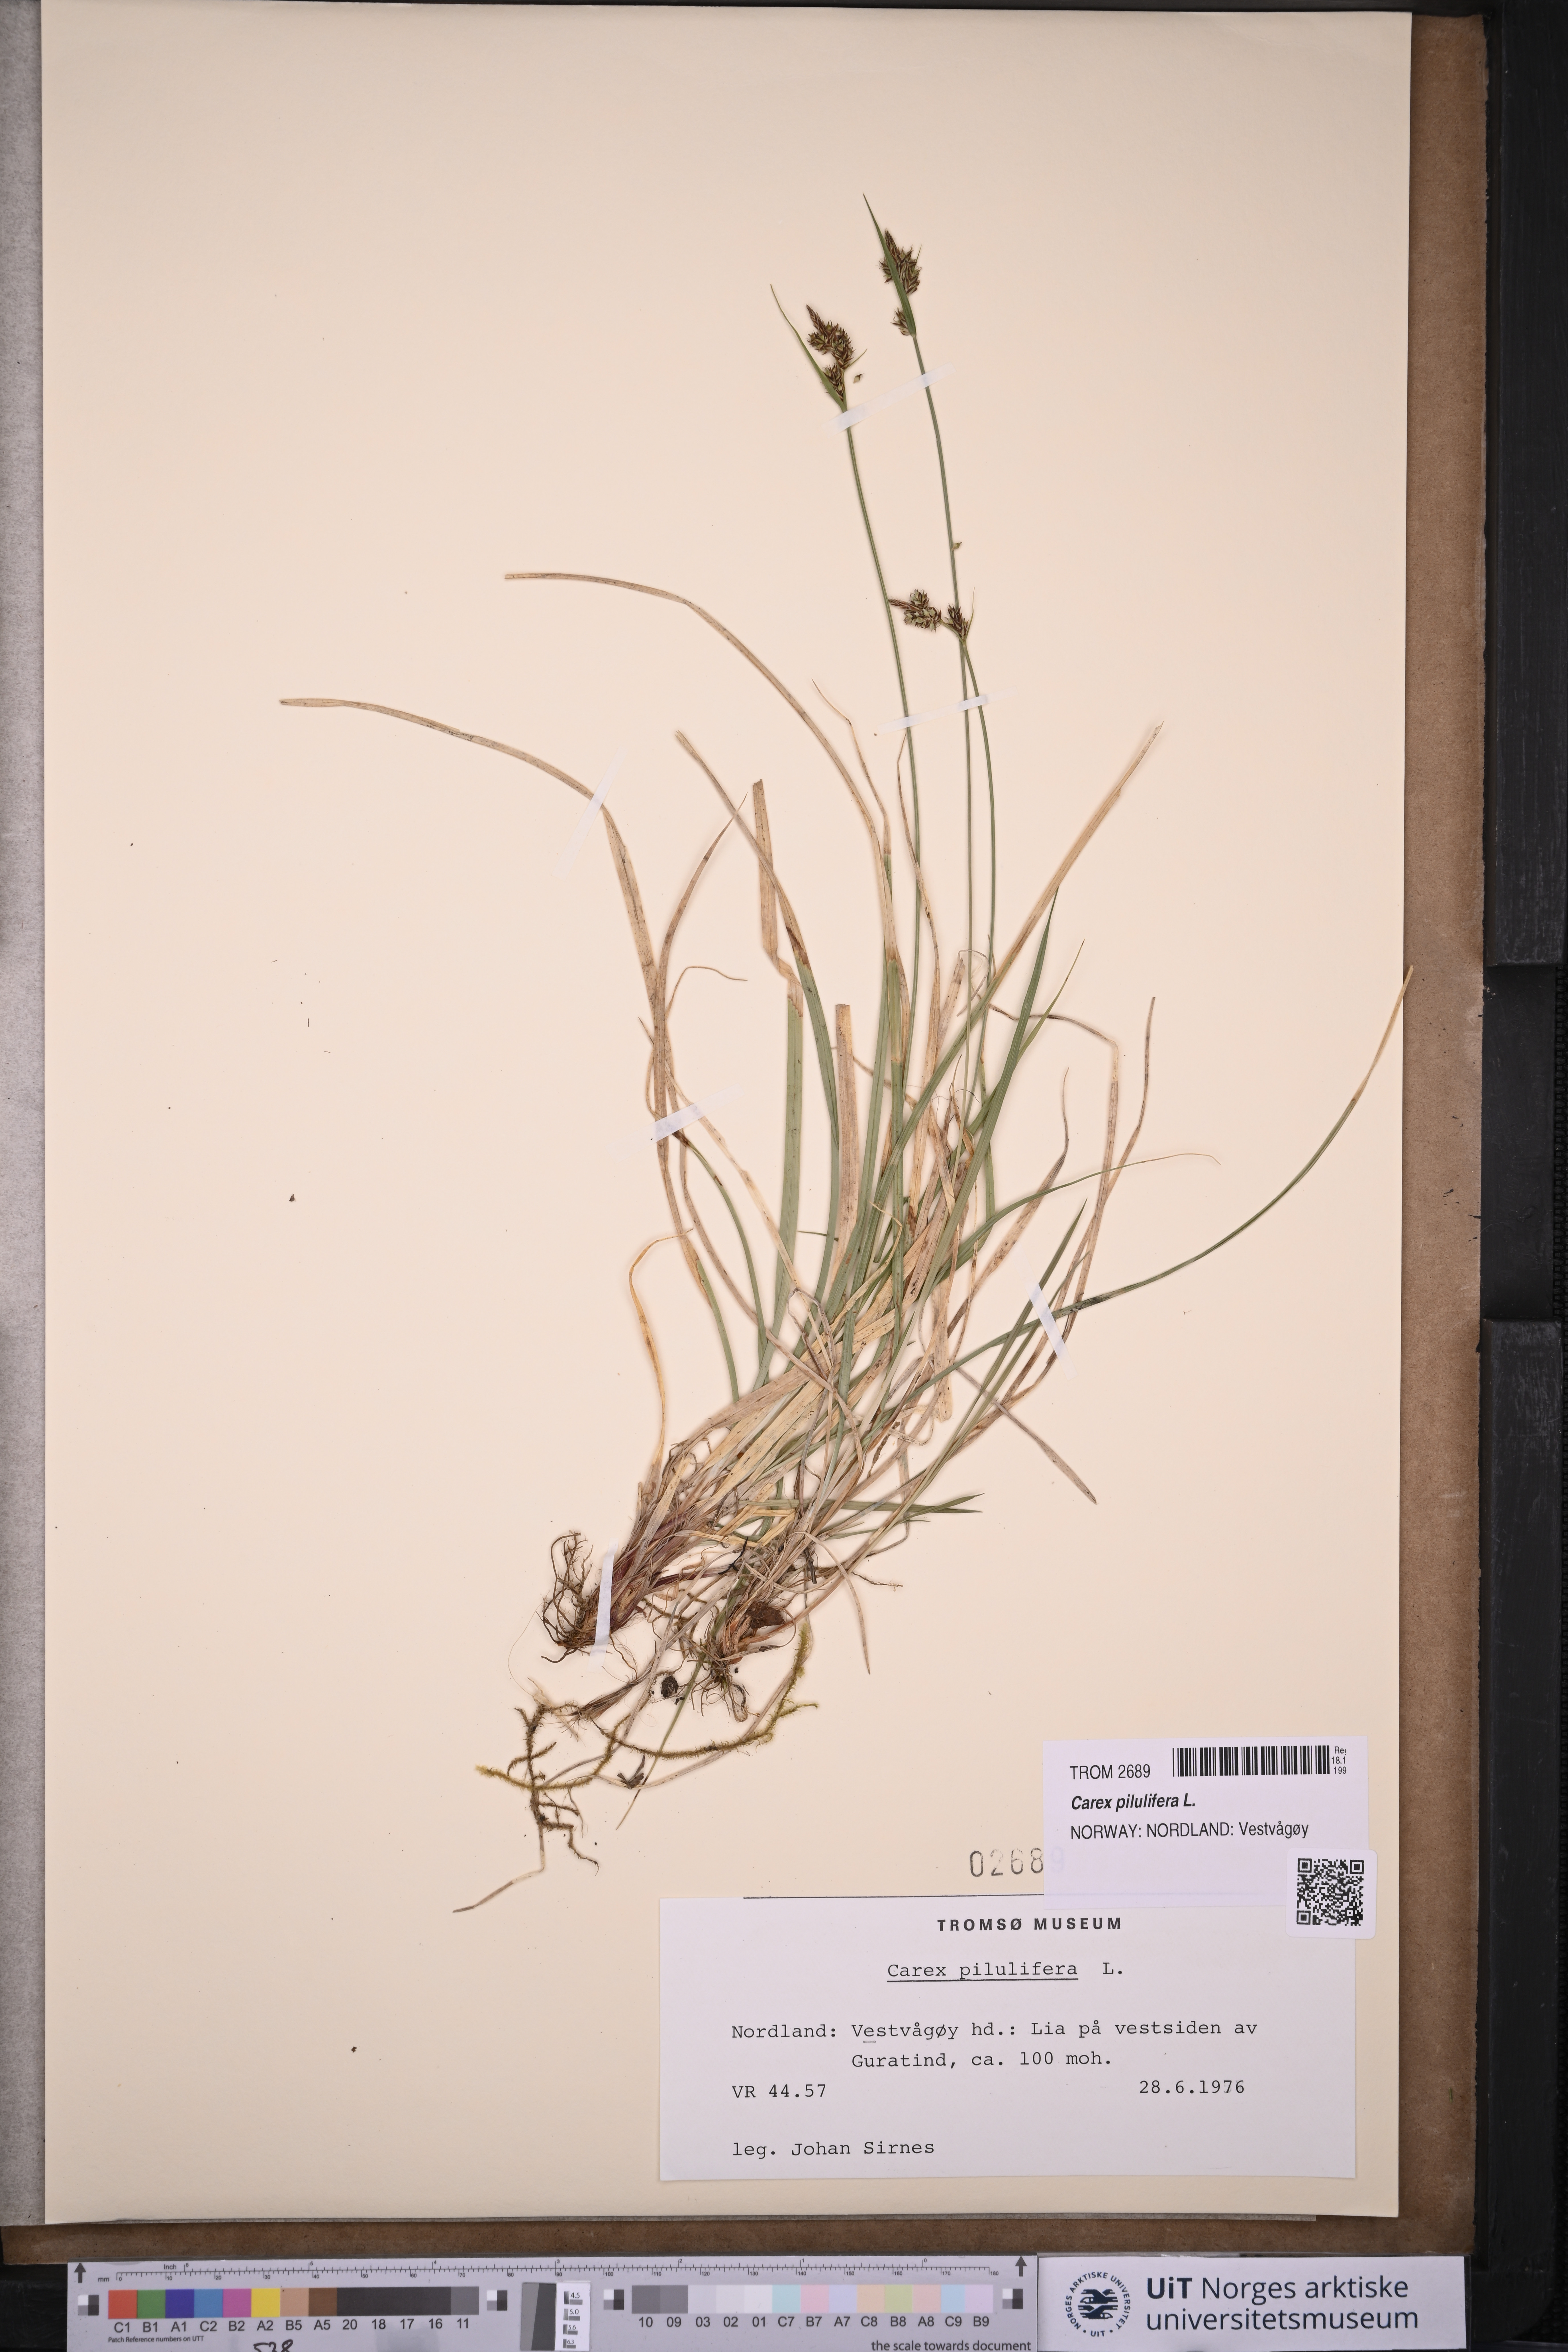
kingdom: Plantae
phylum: Tracheophyta
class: Liliopsida
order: Poales
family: Cyperaceae
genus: Carex
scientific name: Carex pilulifera
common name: Pill sedge
